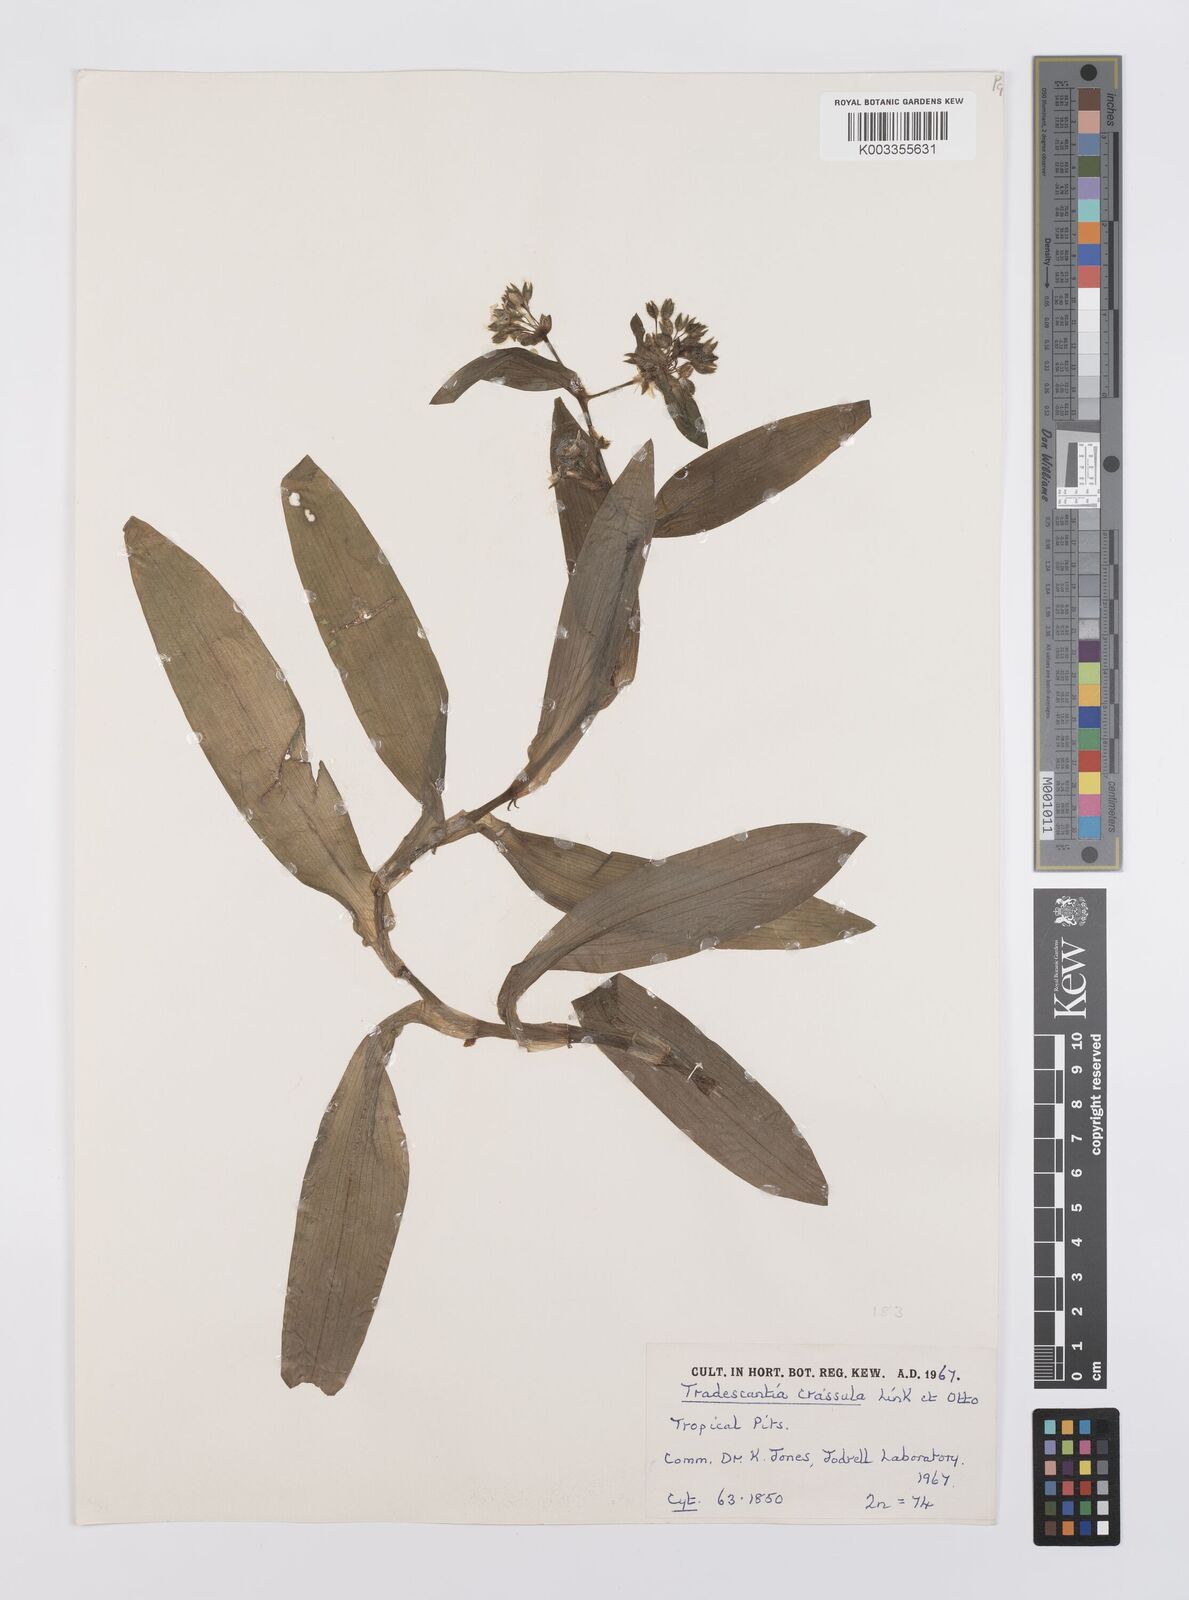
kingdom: Plantae
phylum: Tracheophyta
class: Liliopsida
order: Commelinales
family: Commelinaceae
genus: Tradescantia
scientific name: Tradescantia crassula
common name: Succulent spiderwort
